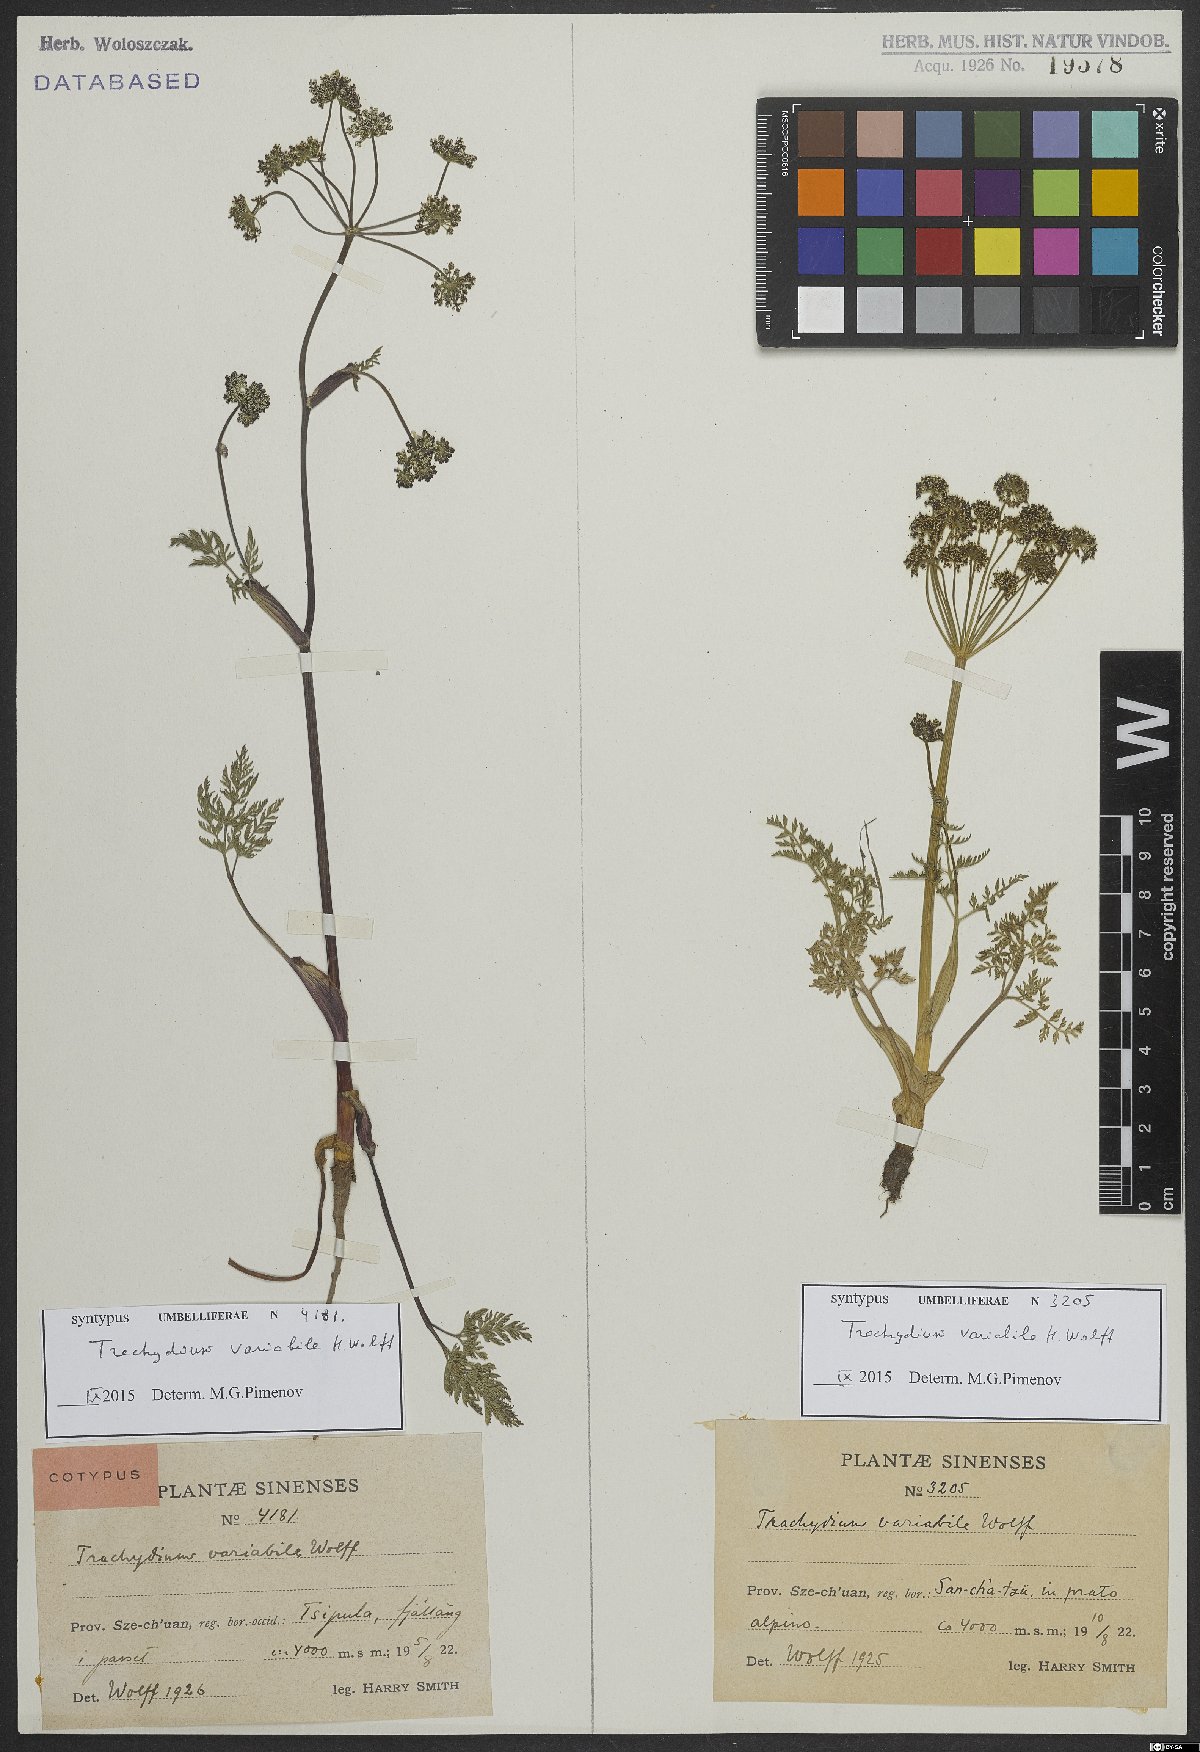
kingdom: Plantae
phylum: Tracheophyta
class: Magnoliopsida
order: Apiales
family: Apiaceae
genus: Trachydium
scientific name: Trachydium variabile
